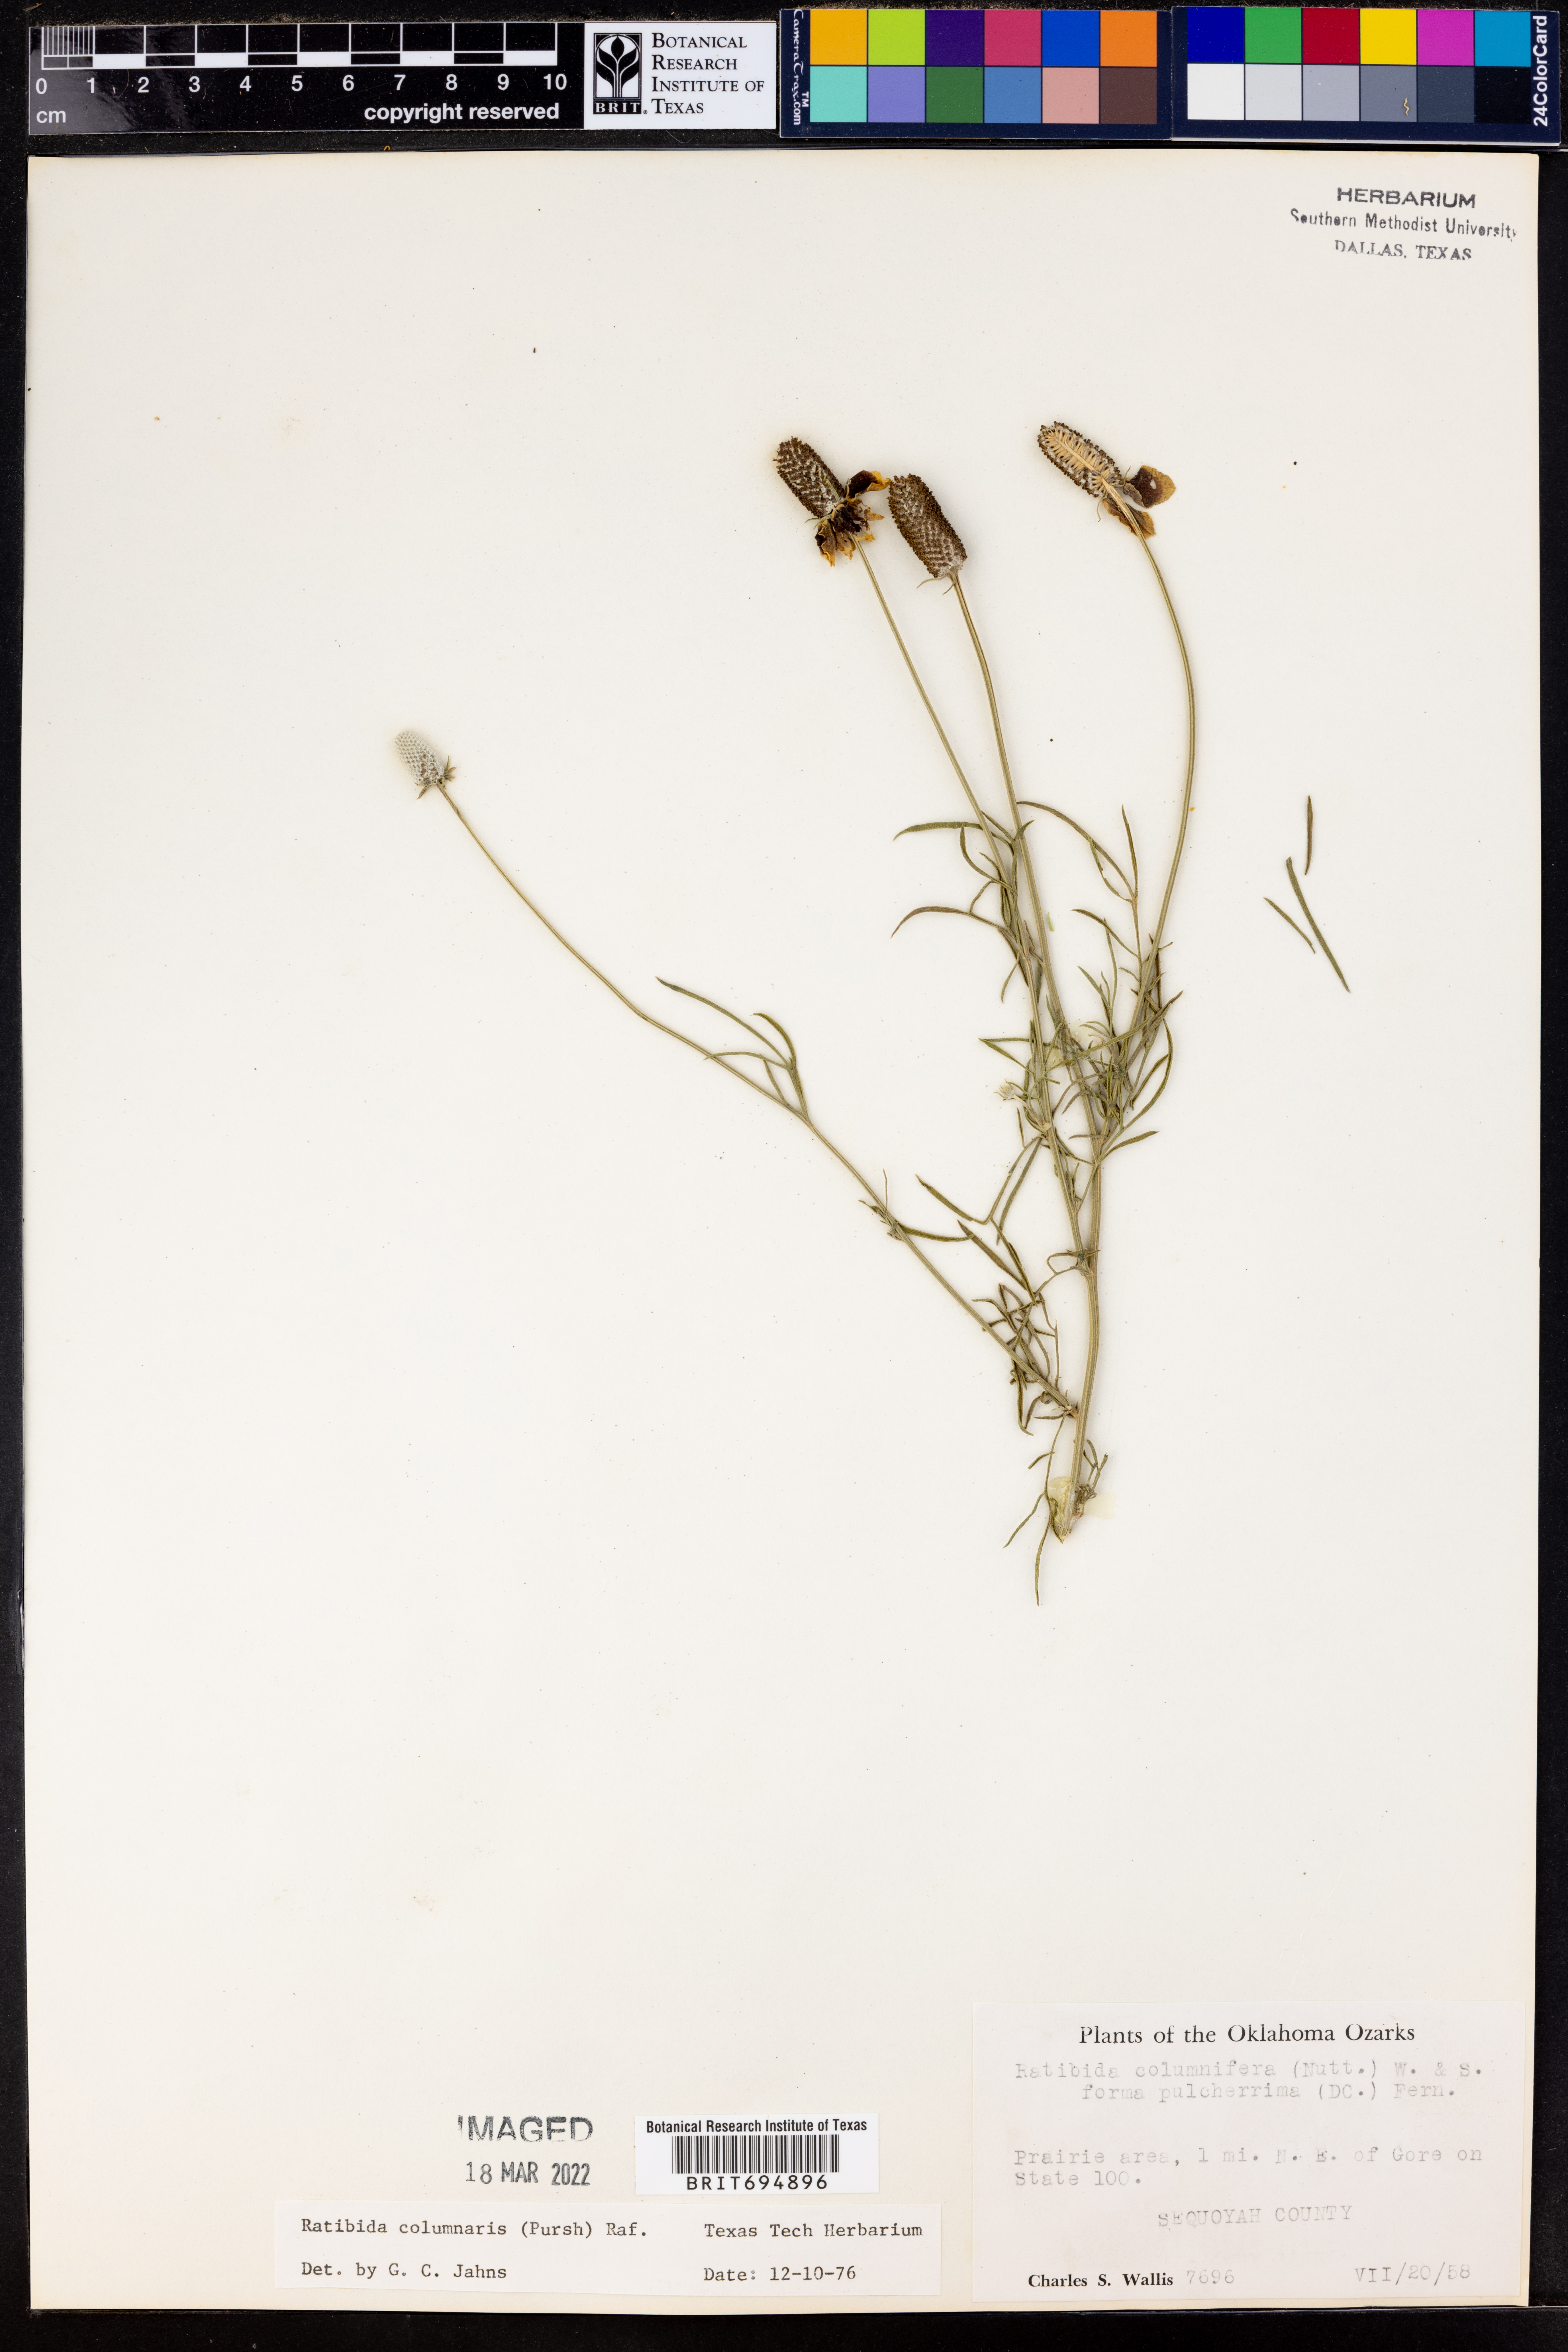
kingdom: Plantae
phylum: Tracheophyta
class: Magnoliopsida
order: Asterales
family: Asteraceae
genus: Ratibida
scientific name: Ratibida columnifera
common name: Prairie coneflower
